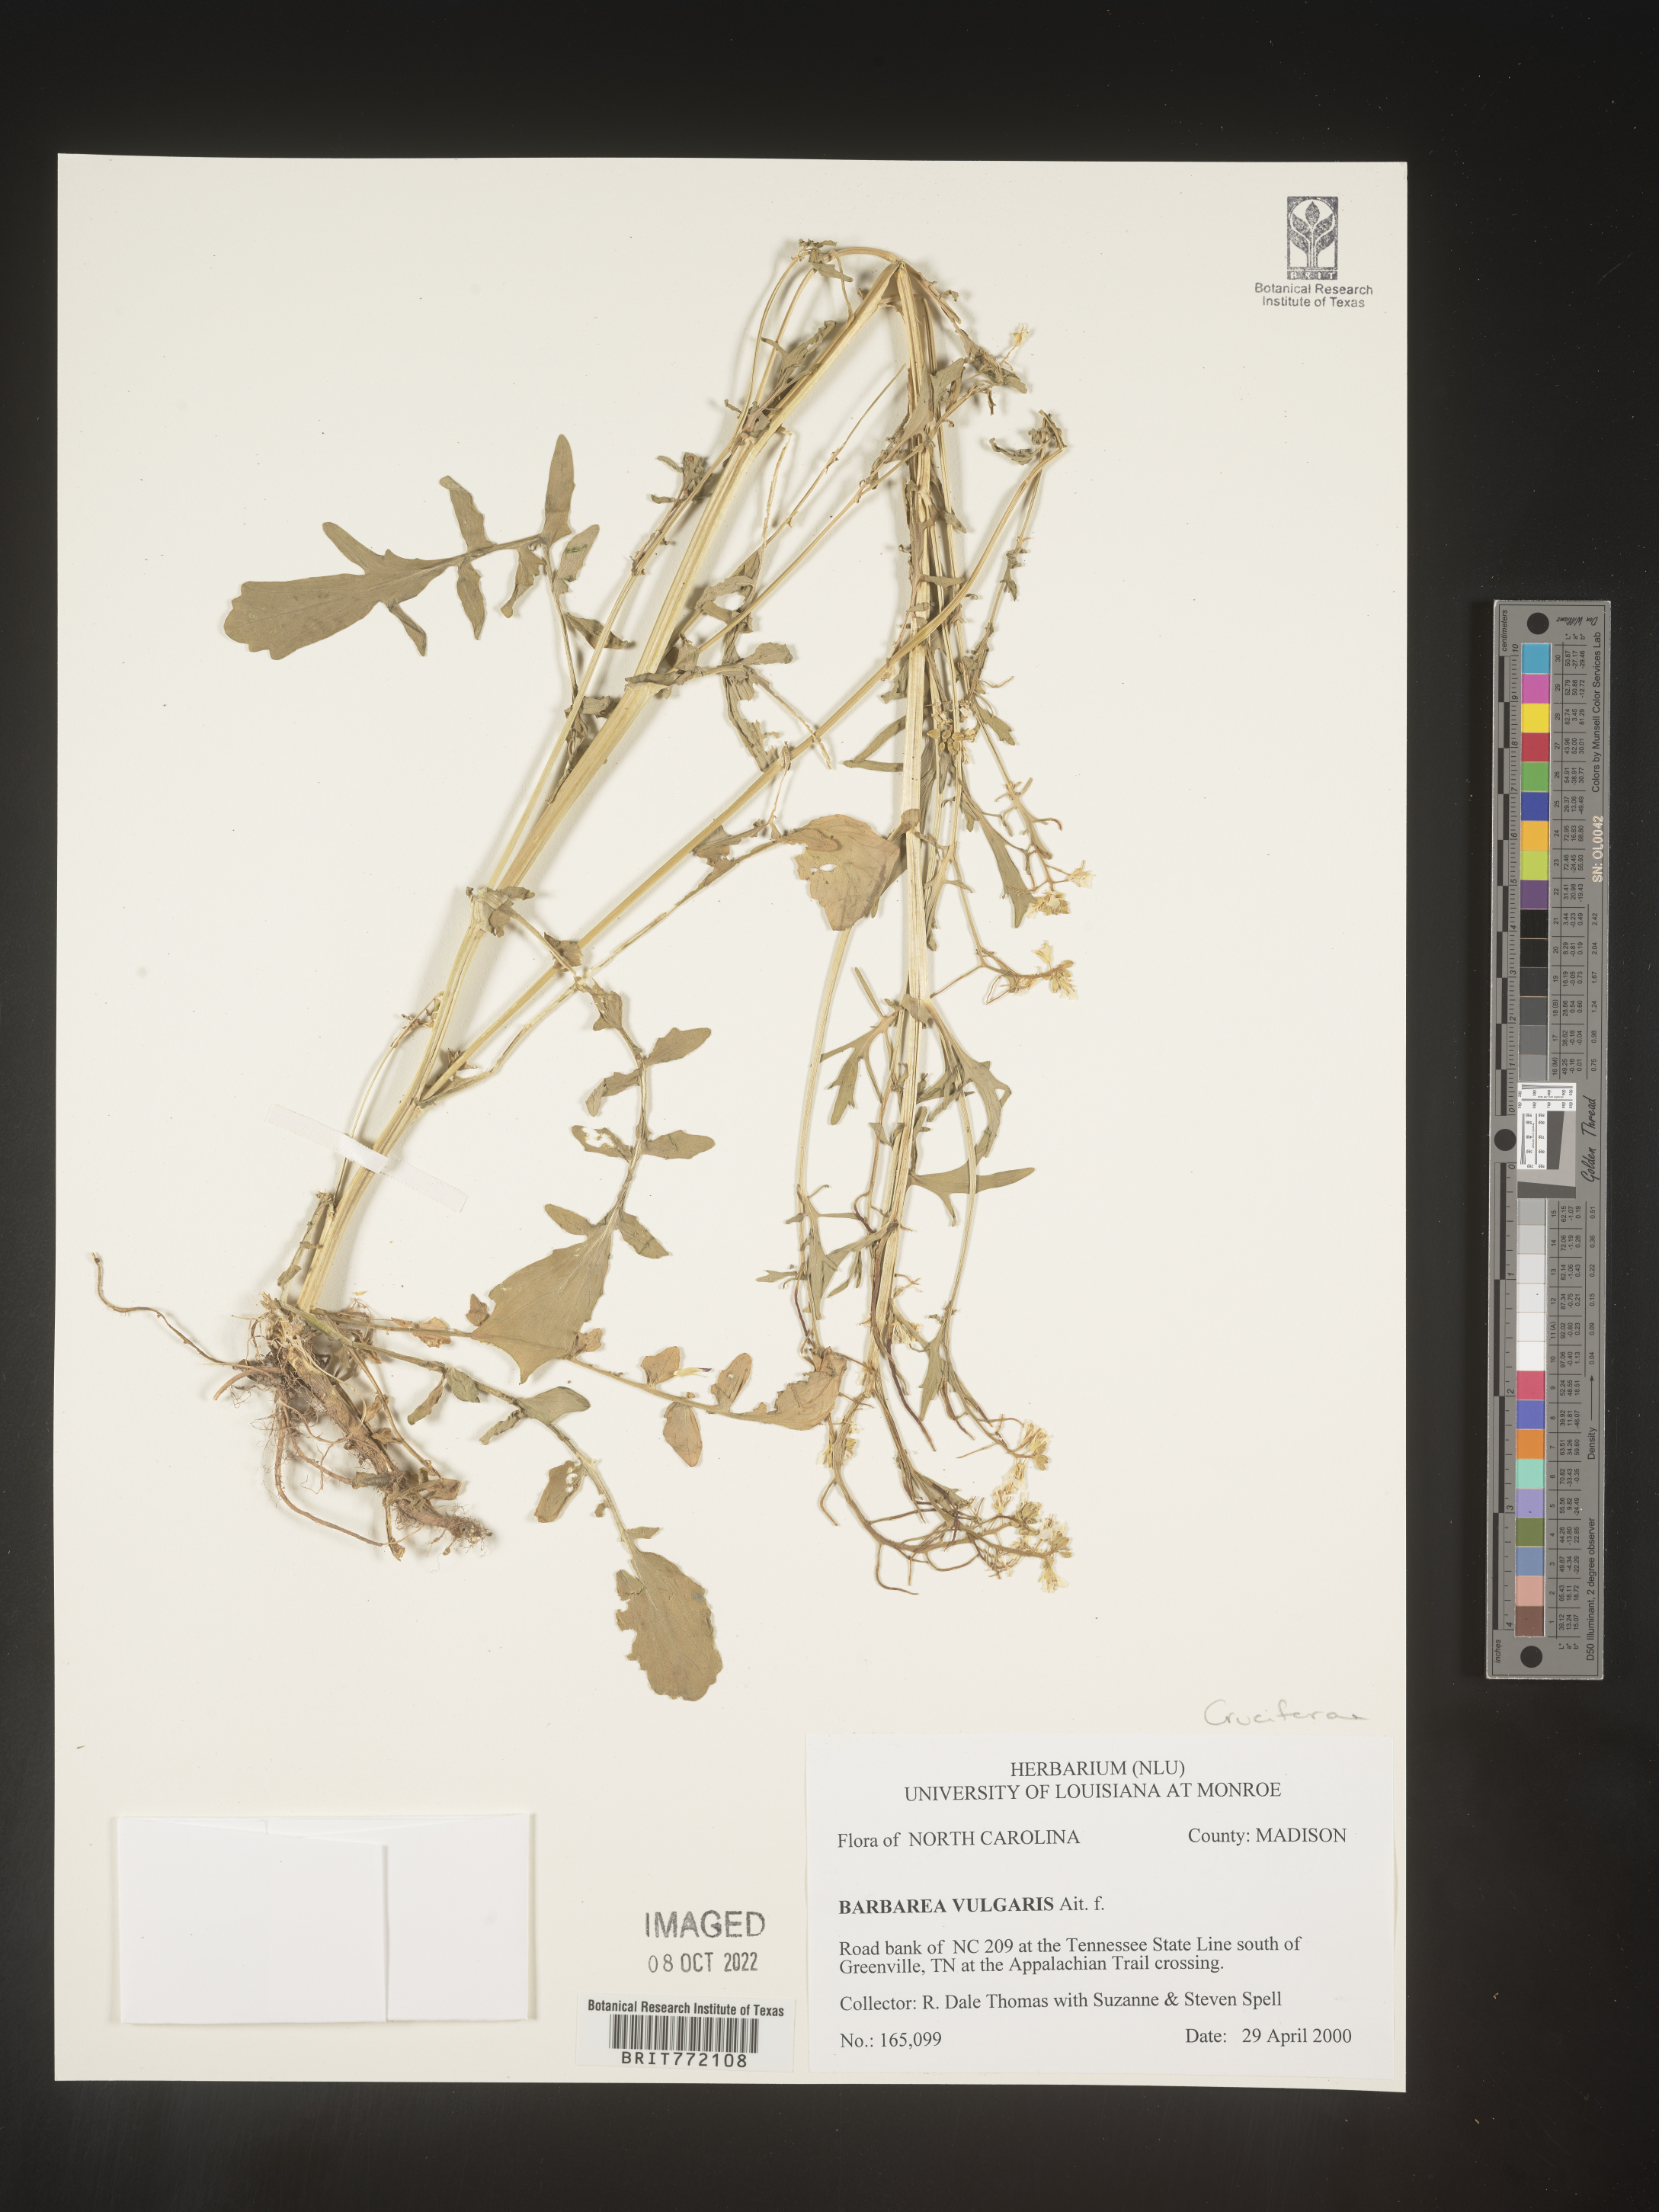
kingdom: Plantae
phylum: Tracheophyta
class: Magnoliopsida
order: Brassicales
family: Brassicaceae
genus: Barbarea
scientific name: Barbarea vulgaris
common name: Cressy-greens
